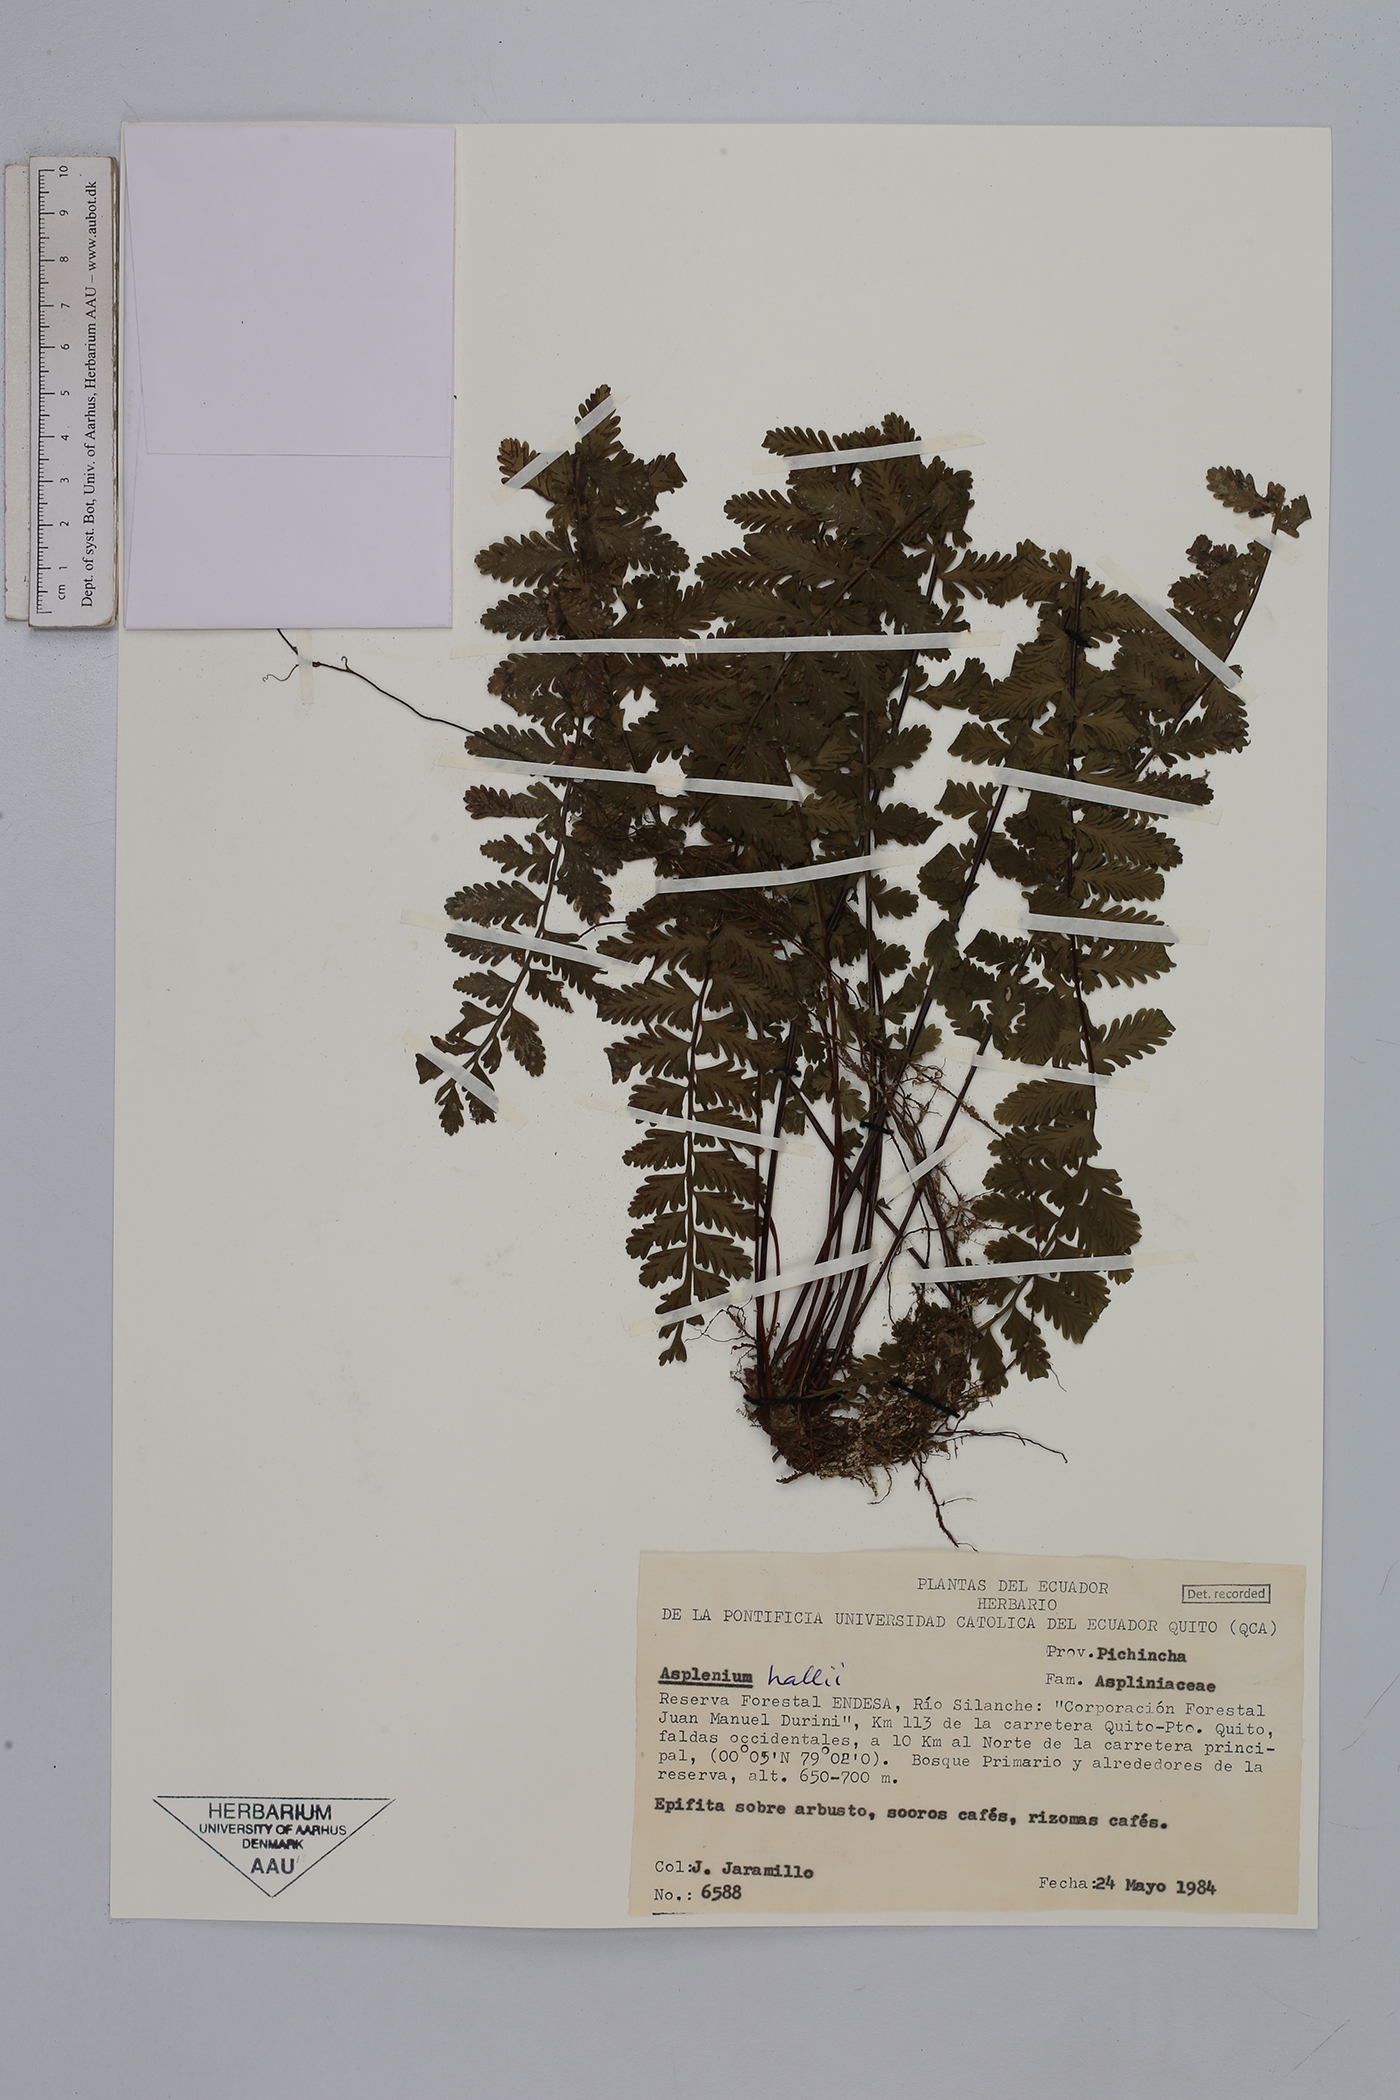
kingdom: Plantae
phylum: Tracheophyta
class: Polypodiopsida
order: Polypodiales
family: Aspleniaceae
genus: Asplenium
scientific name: Asplenium hallii
